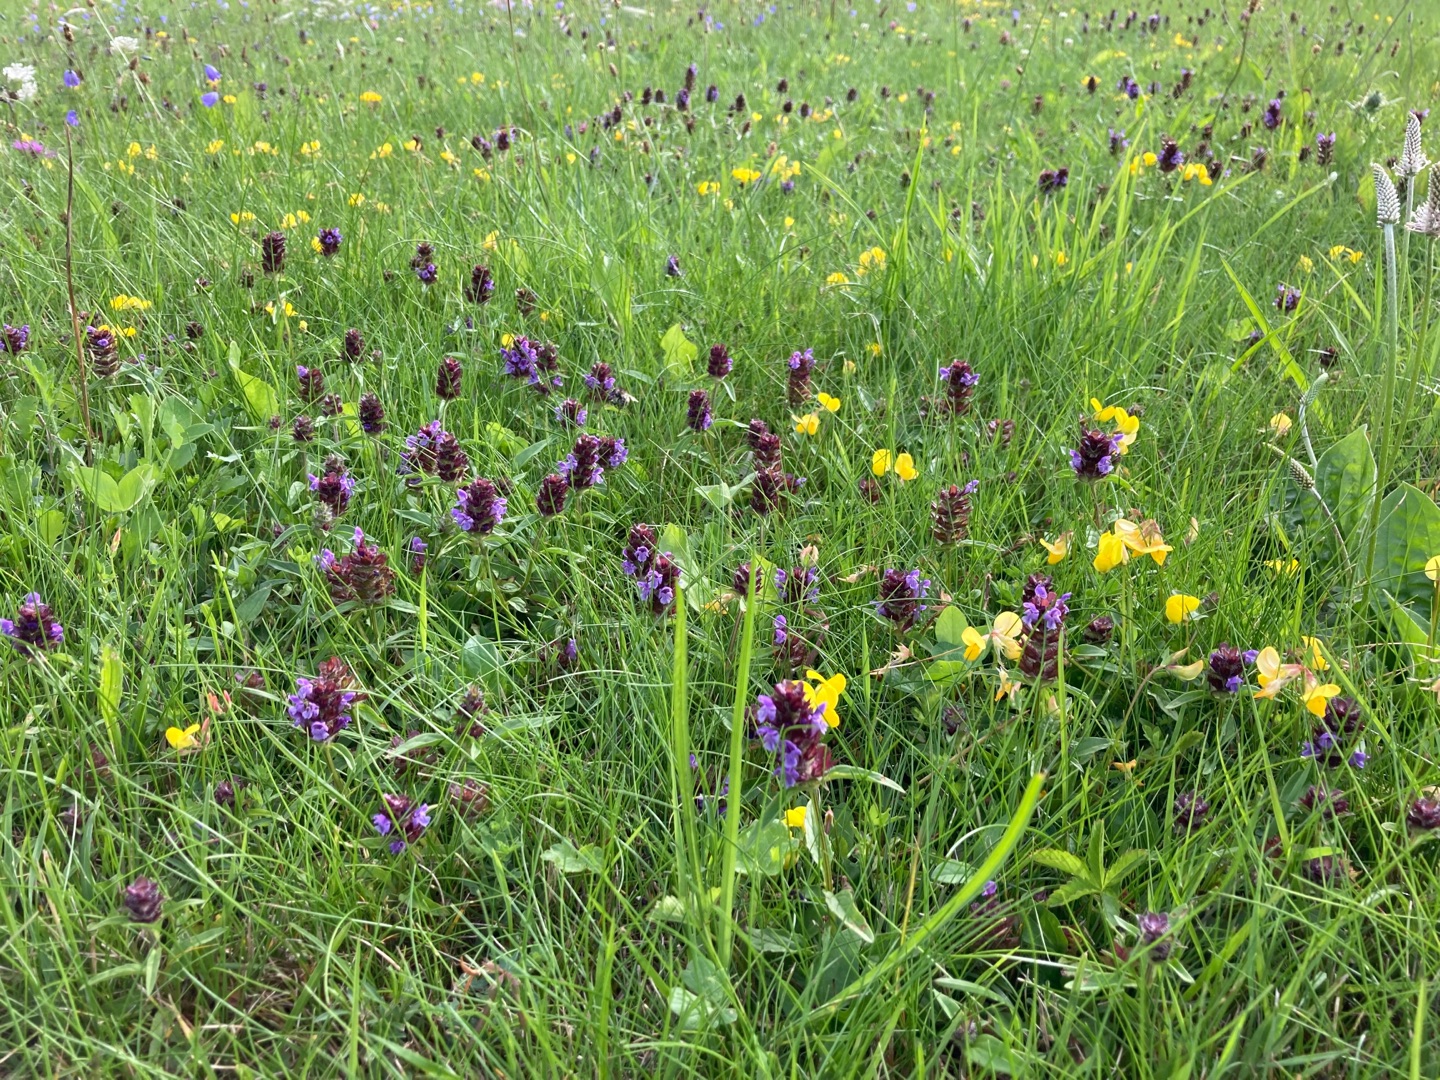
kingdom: Plantae
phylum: Tracheophyta
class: Magnoliopsida
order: Lamiales
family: Lamiaceae
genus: Prunella
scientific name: Prunella vulgaris
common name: Almindelig brunelle
